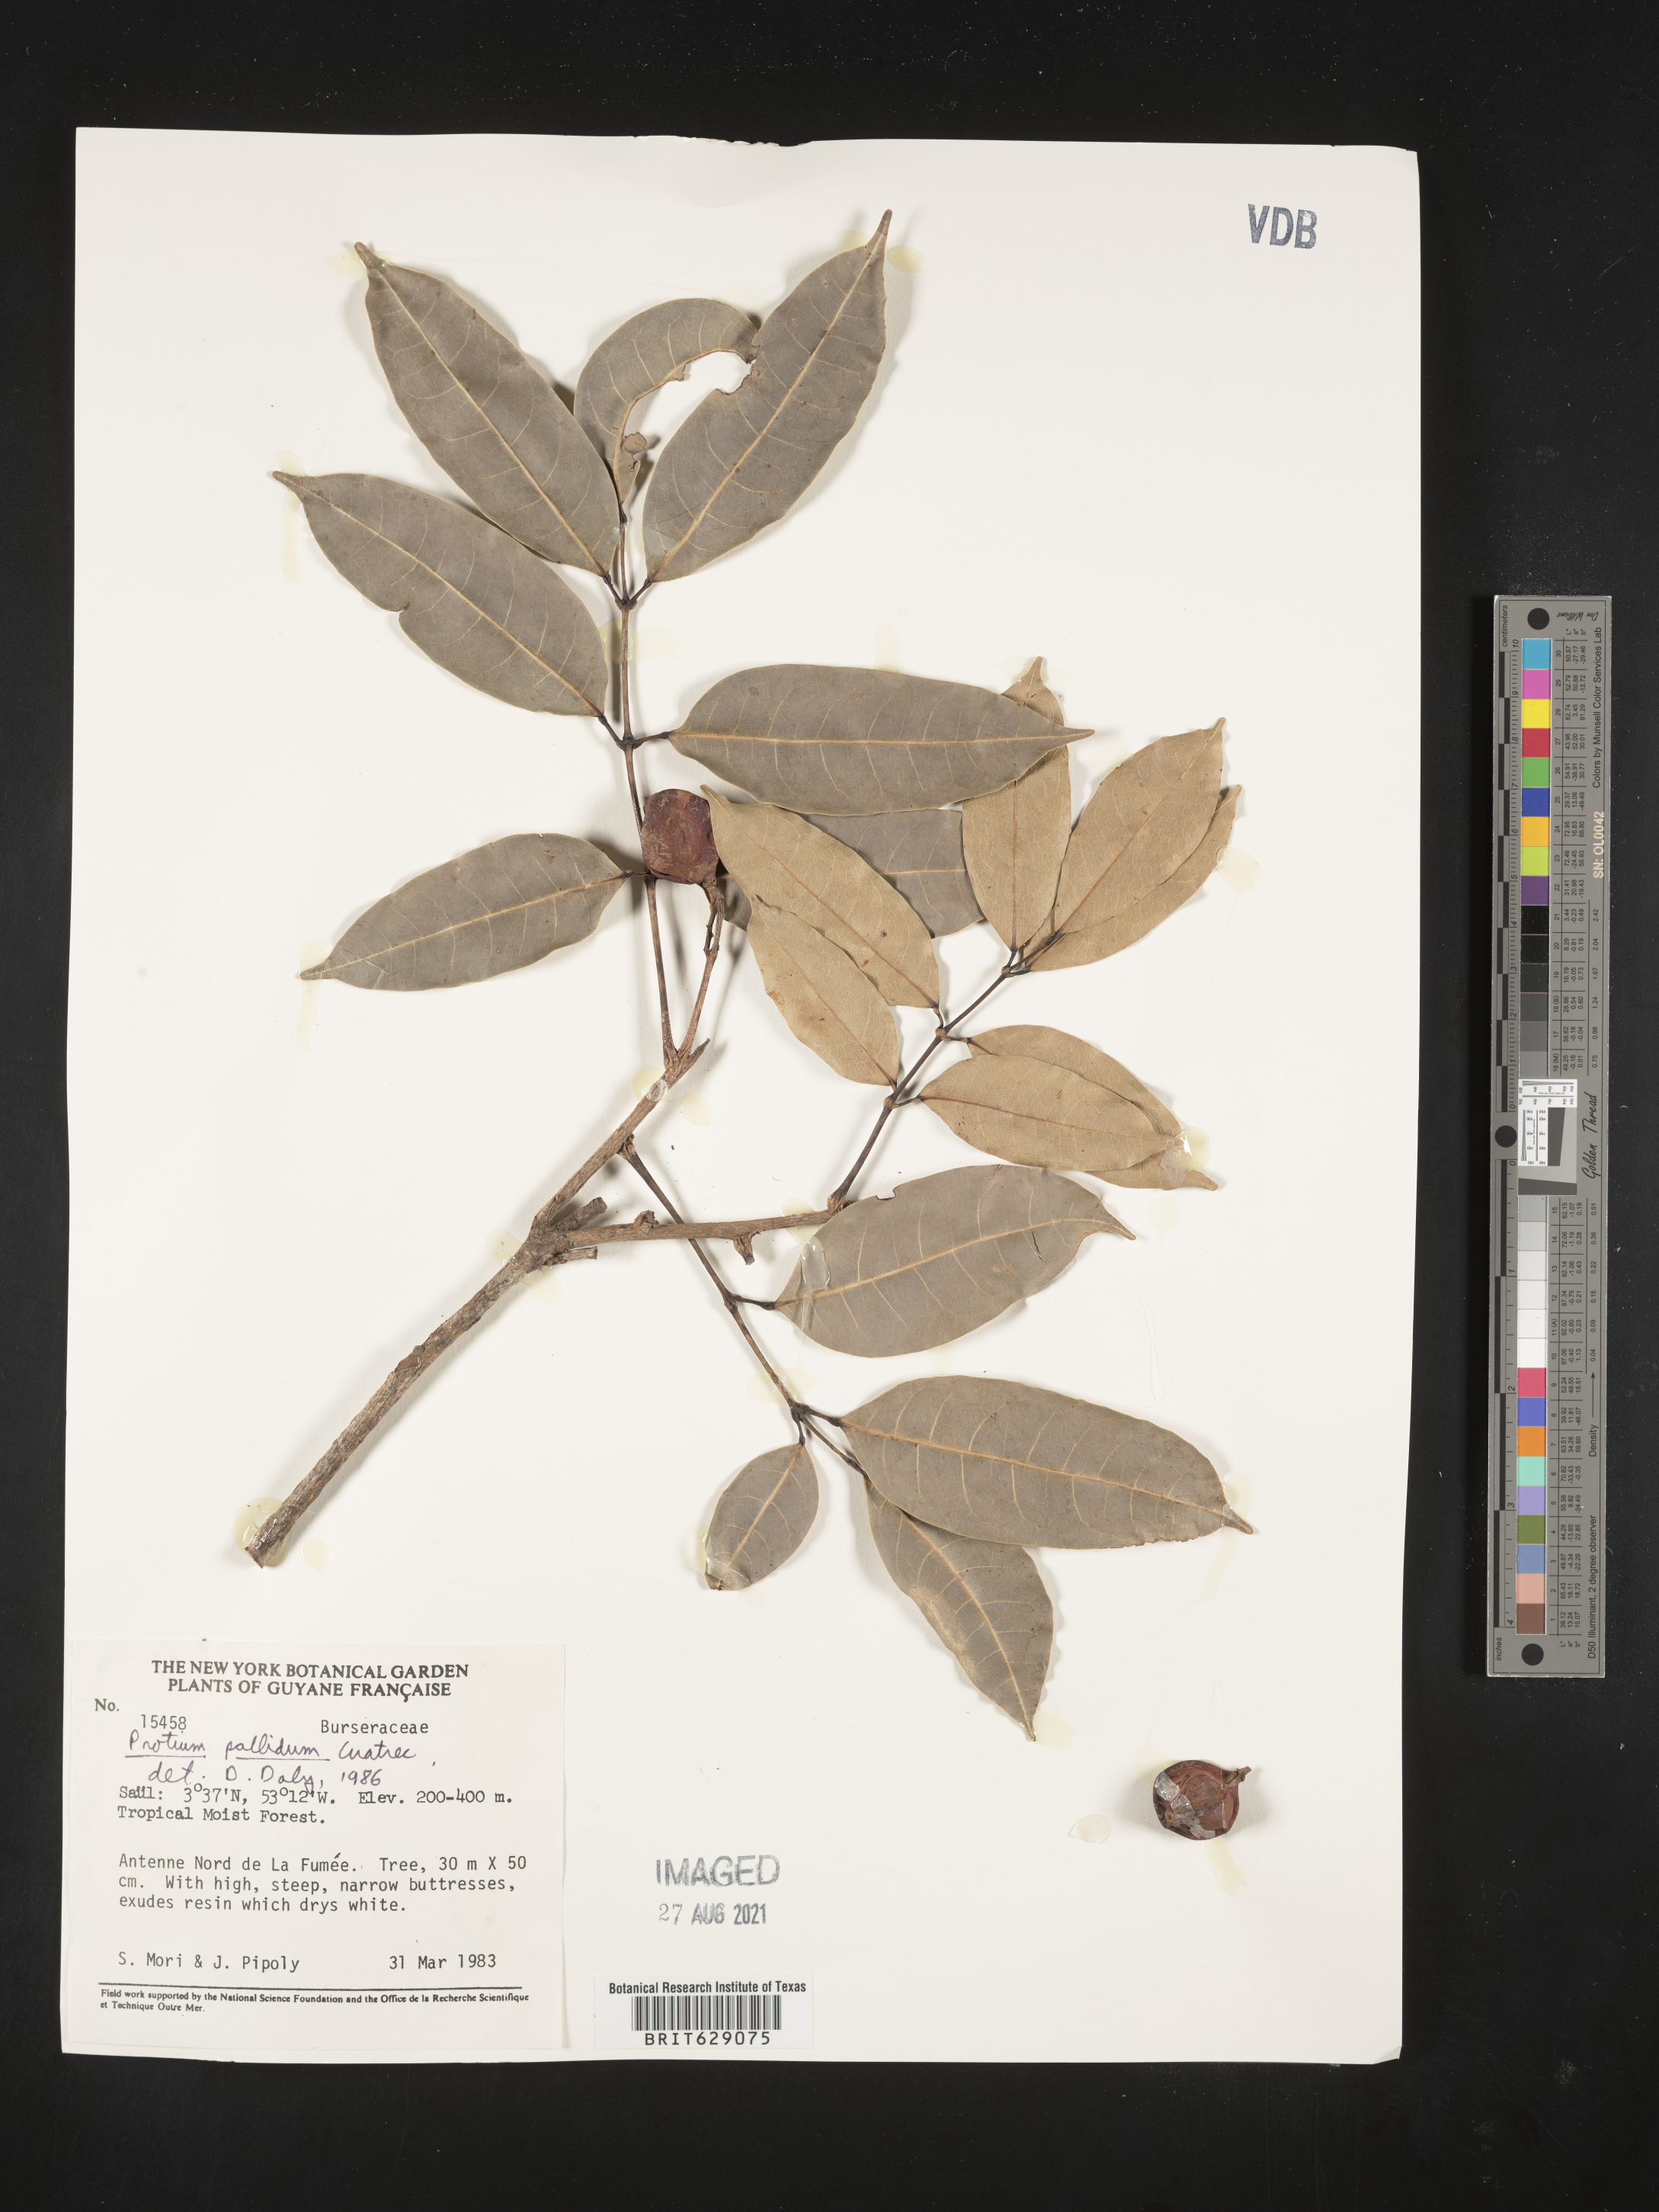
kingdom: Plantae
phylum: Tracheophyta
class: Magnoliopsida
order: Sapindales
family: Burseraceae
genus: Protium
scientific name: Protium pallidum
